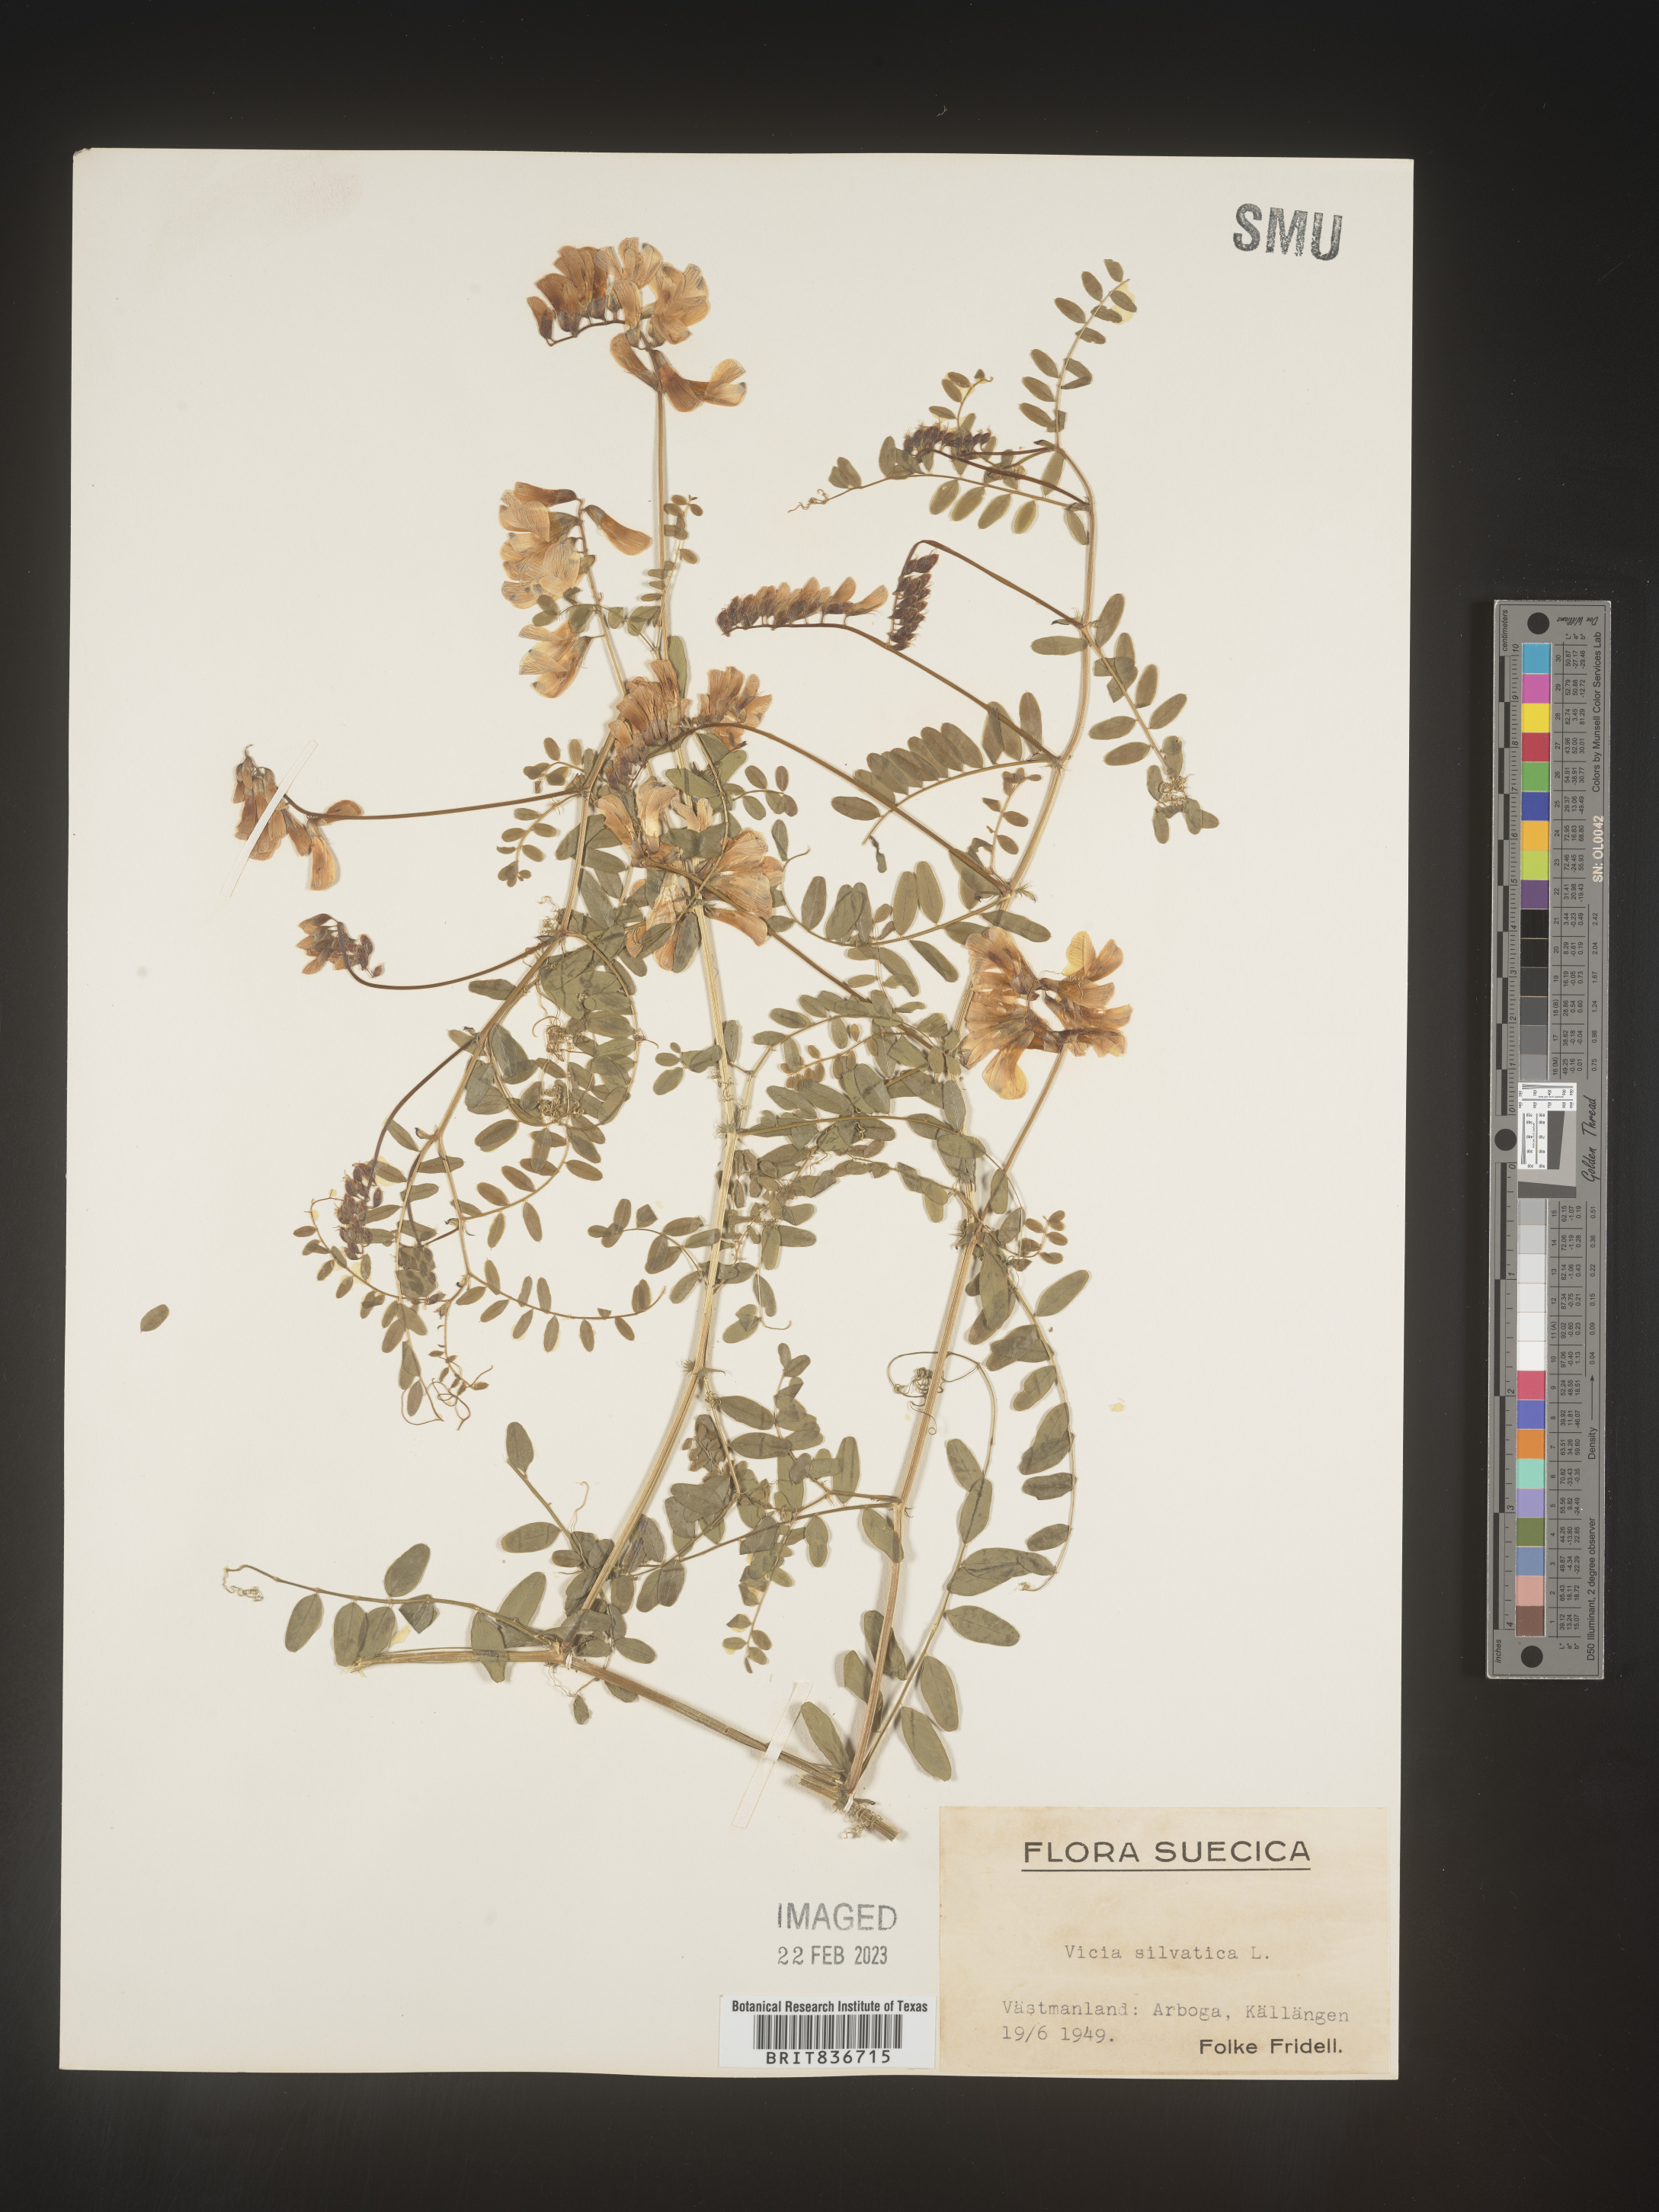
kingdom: Plantae
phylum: Tracheophyta
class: Magnoliopsida
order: Fabales
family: Fabaceae
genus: Vicia
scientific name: Vicia sylvatica
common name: Wood vetch
